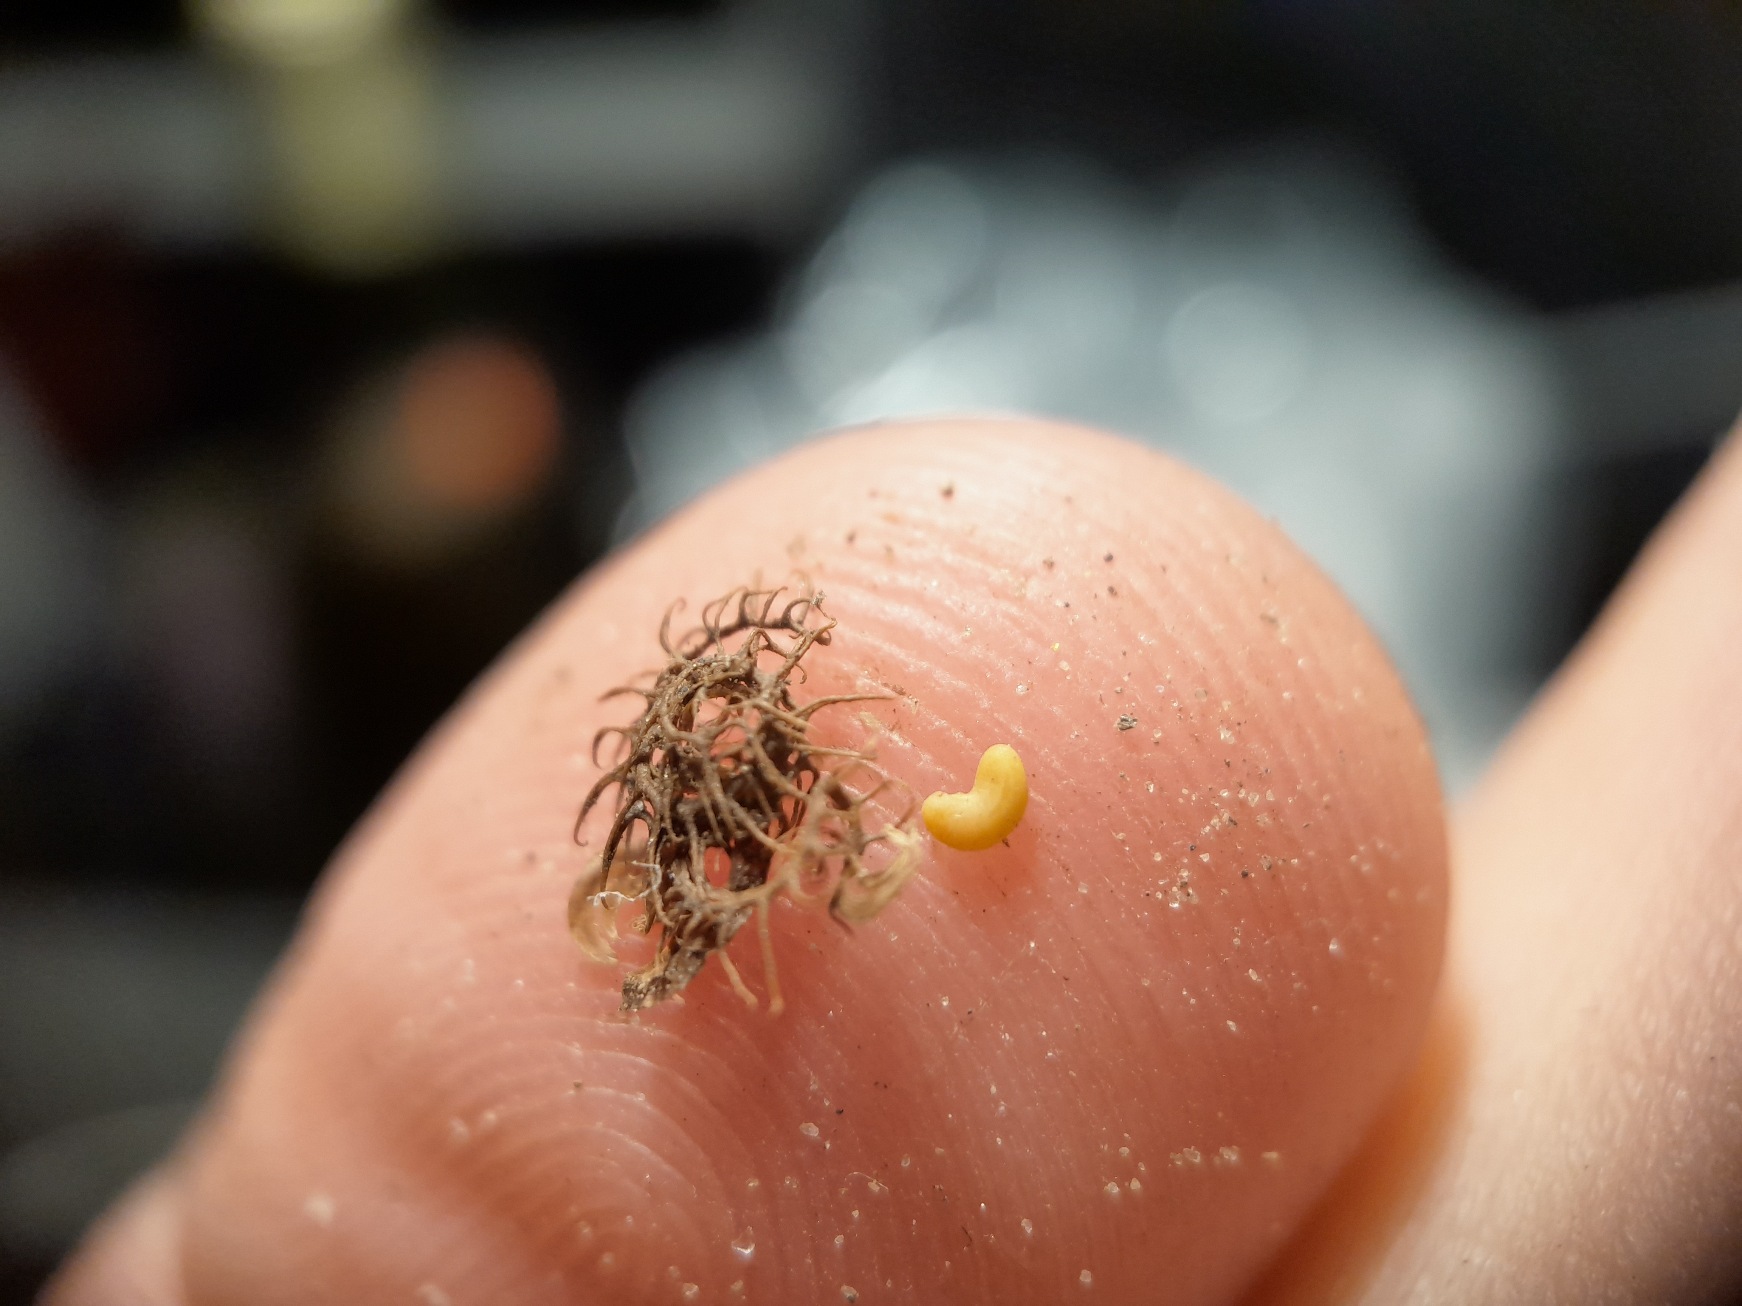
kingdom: Plantae
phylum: Tracheophyta
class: Magnoliopsida
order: Fabales
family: Fabaceae
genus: Medicago
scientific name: Medicago minima
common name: Liden sneglebælg
